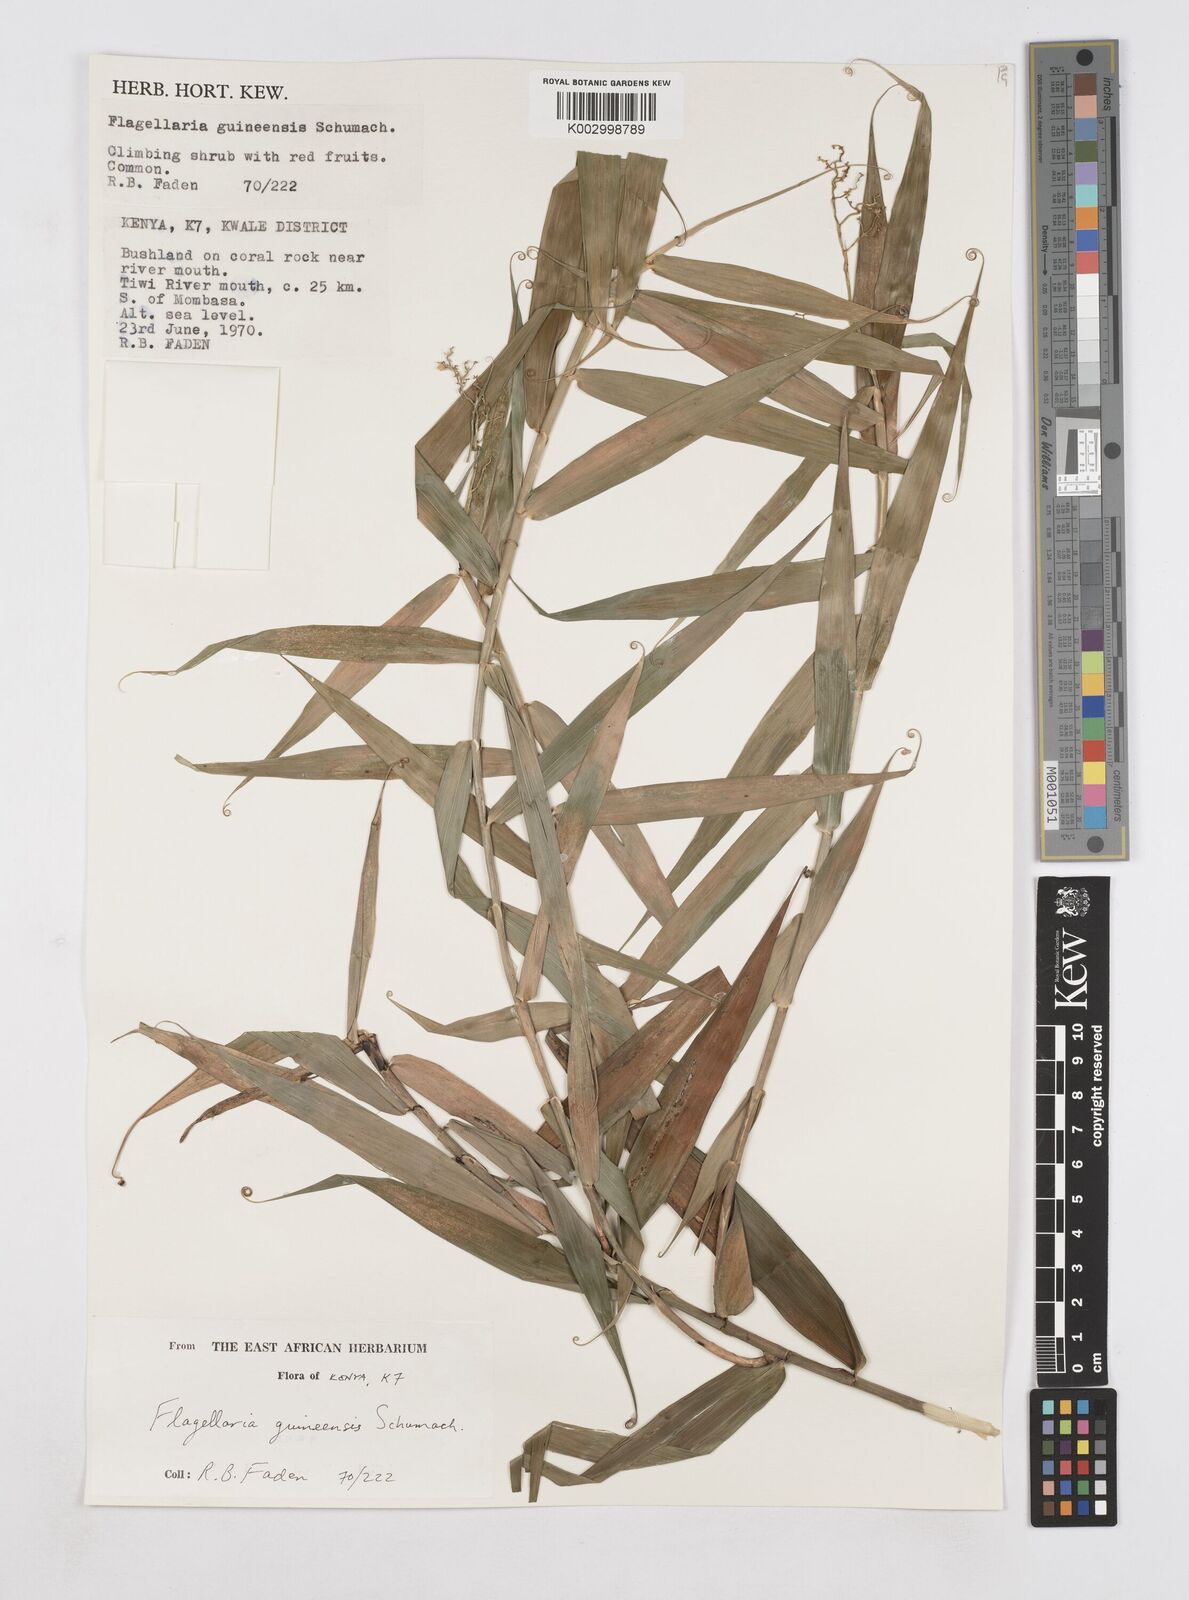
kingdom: Plantae
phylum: Tracheophyta
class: Liliopsida
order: Poales
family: Flagellariaceae
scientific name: Flagellariaceae
